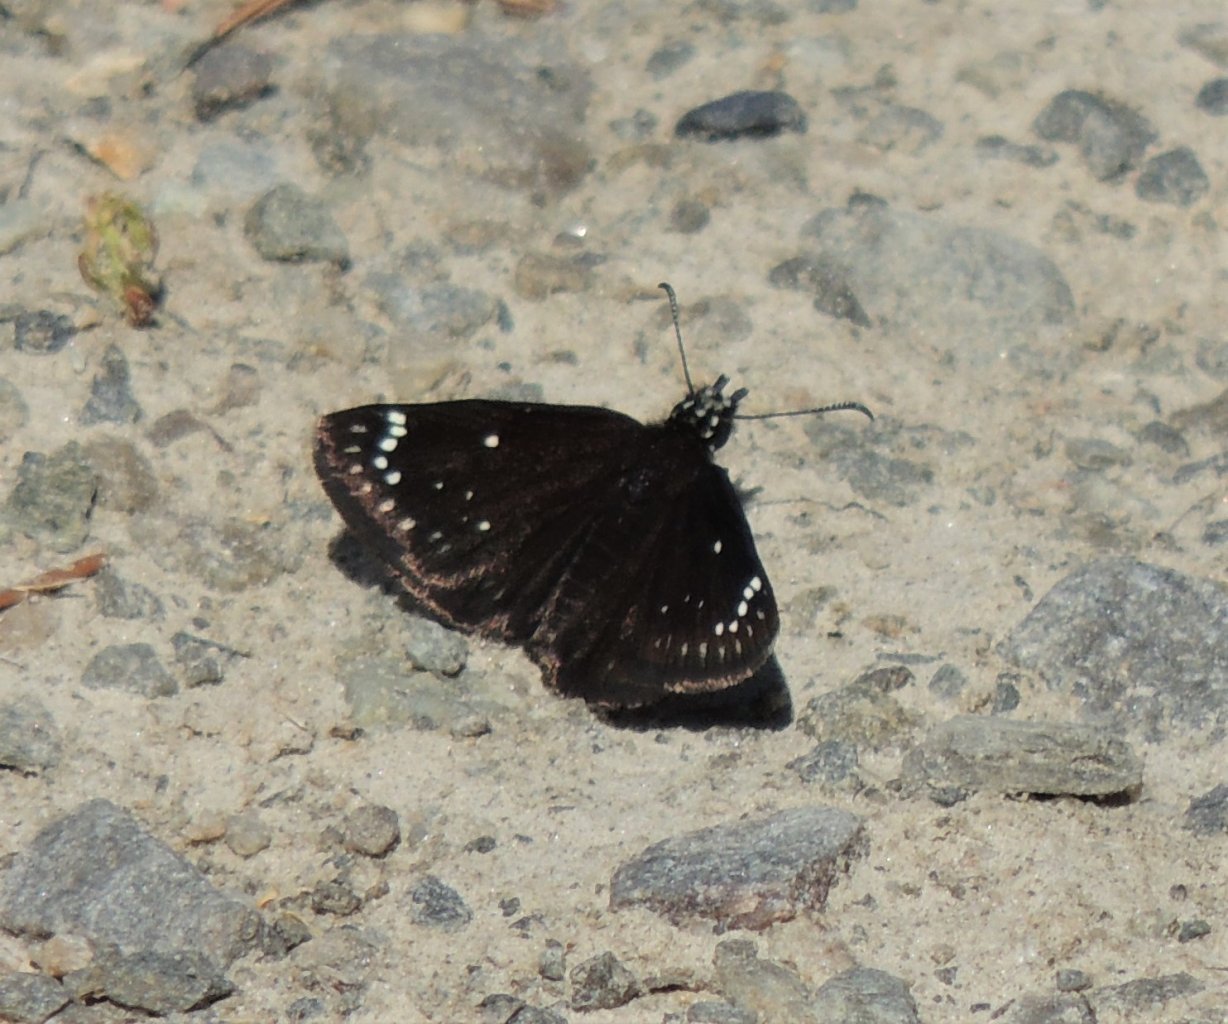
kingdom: Animalia
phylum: Arthropoda
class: Insecta
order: Lepidoptera
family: Hesperiidae
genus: Pholisora
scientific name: Pholisora catullus
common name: Common Sootywing
